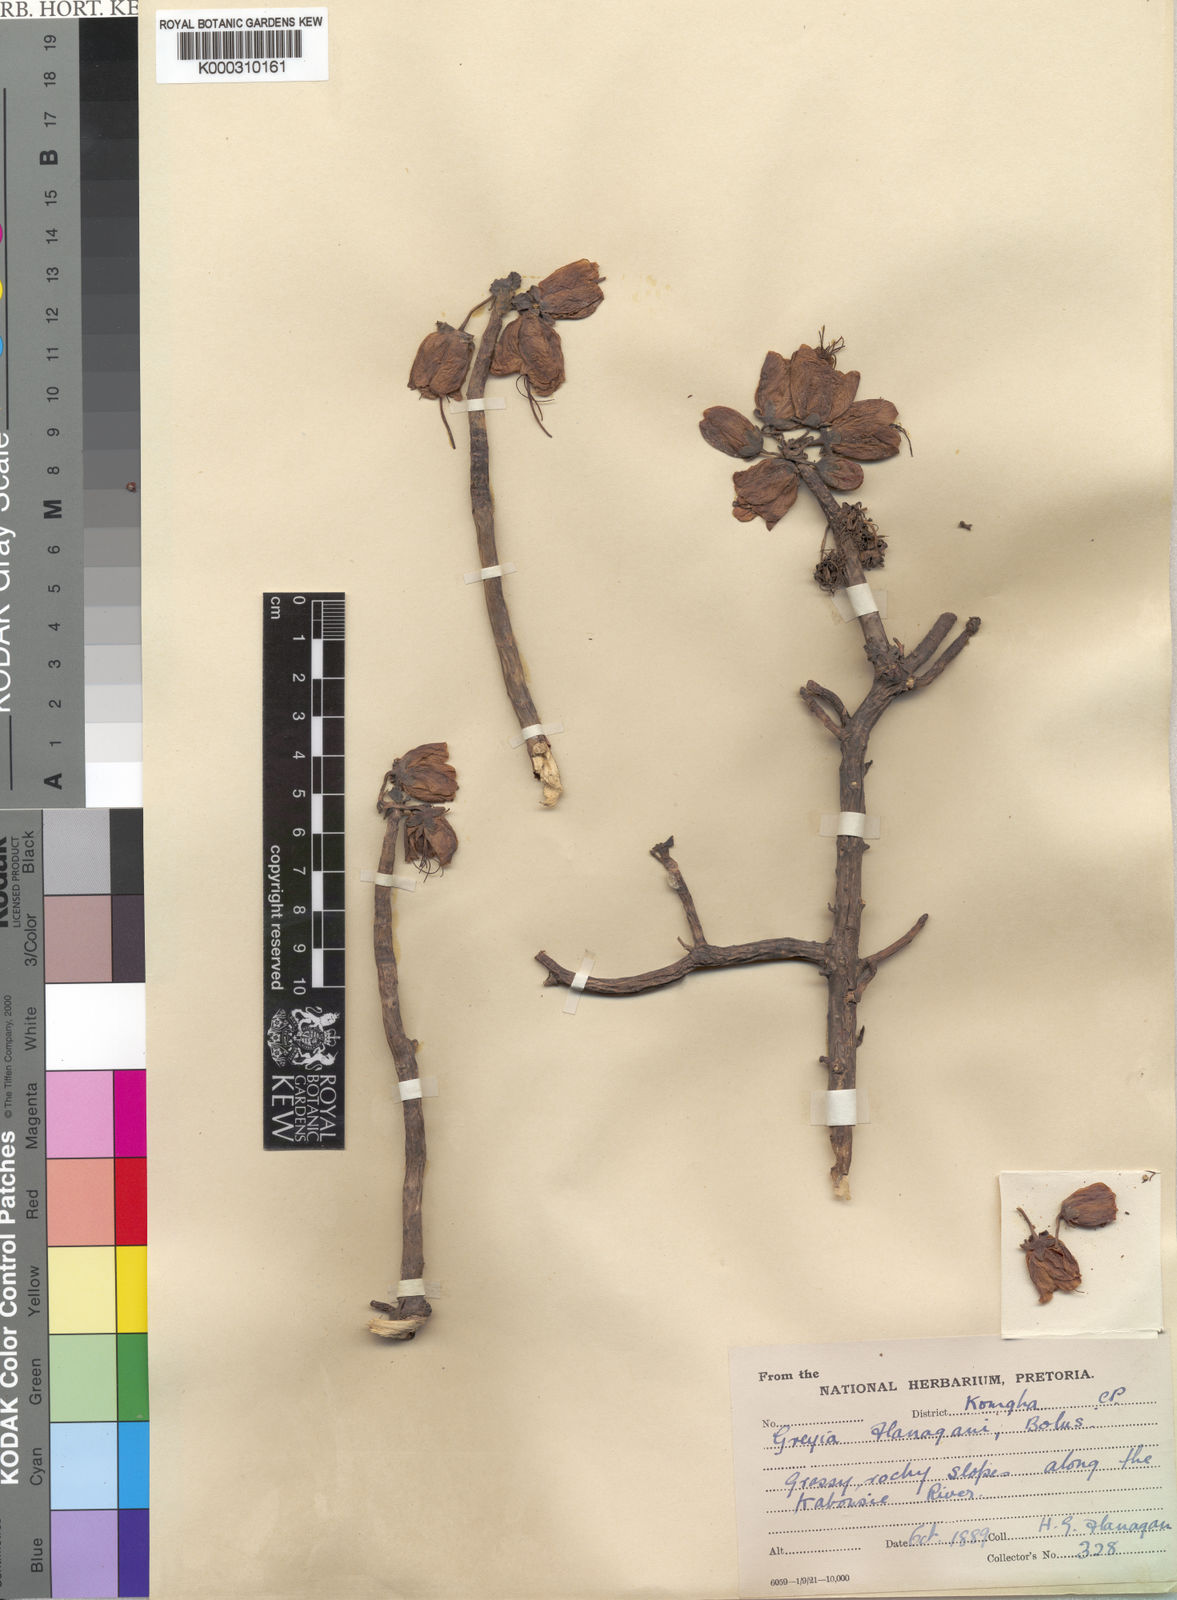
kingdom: Plantae
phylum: Tracheophyta
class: Magnoliopsida
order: Geraniales
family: Francoaceae
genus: Greyia
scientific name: Greyia flanaganii
